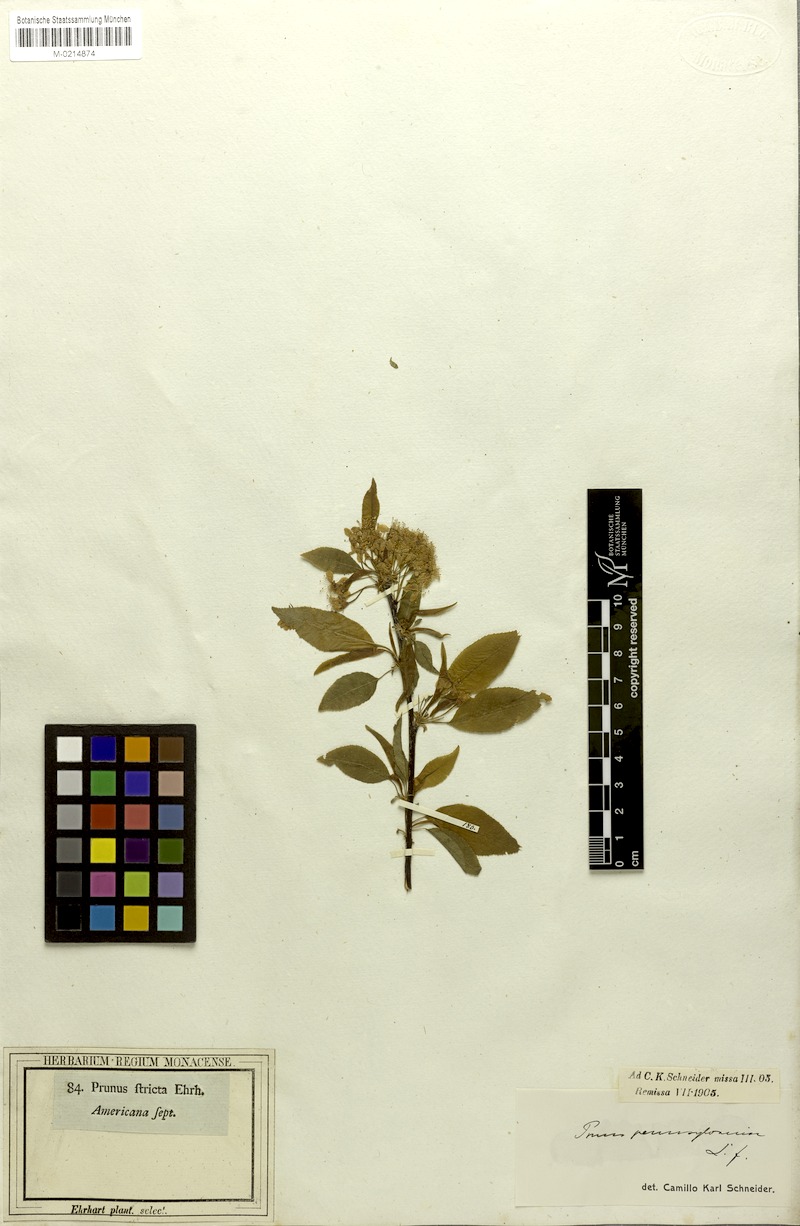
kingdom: Plantae
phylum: Tracheophyta
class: Magnoliopsida
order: Rosales
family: Rosaceae
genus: Prunus
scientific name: Prunus pensylvanica
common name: Pin cherry
